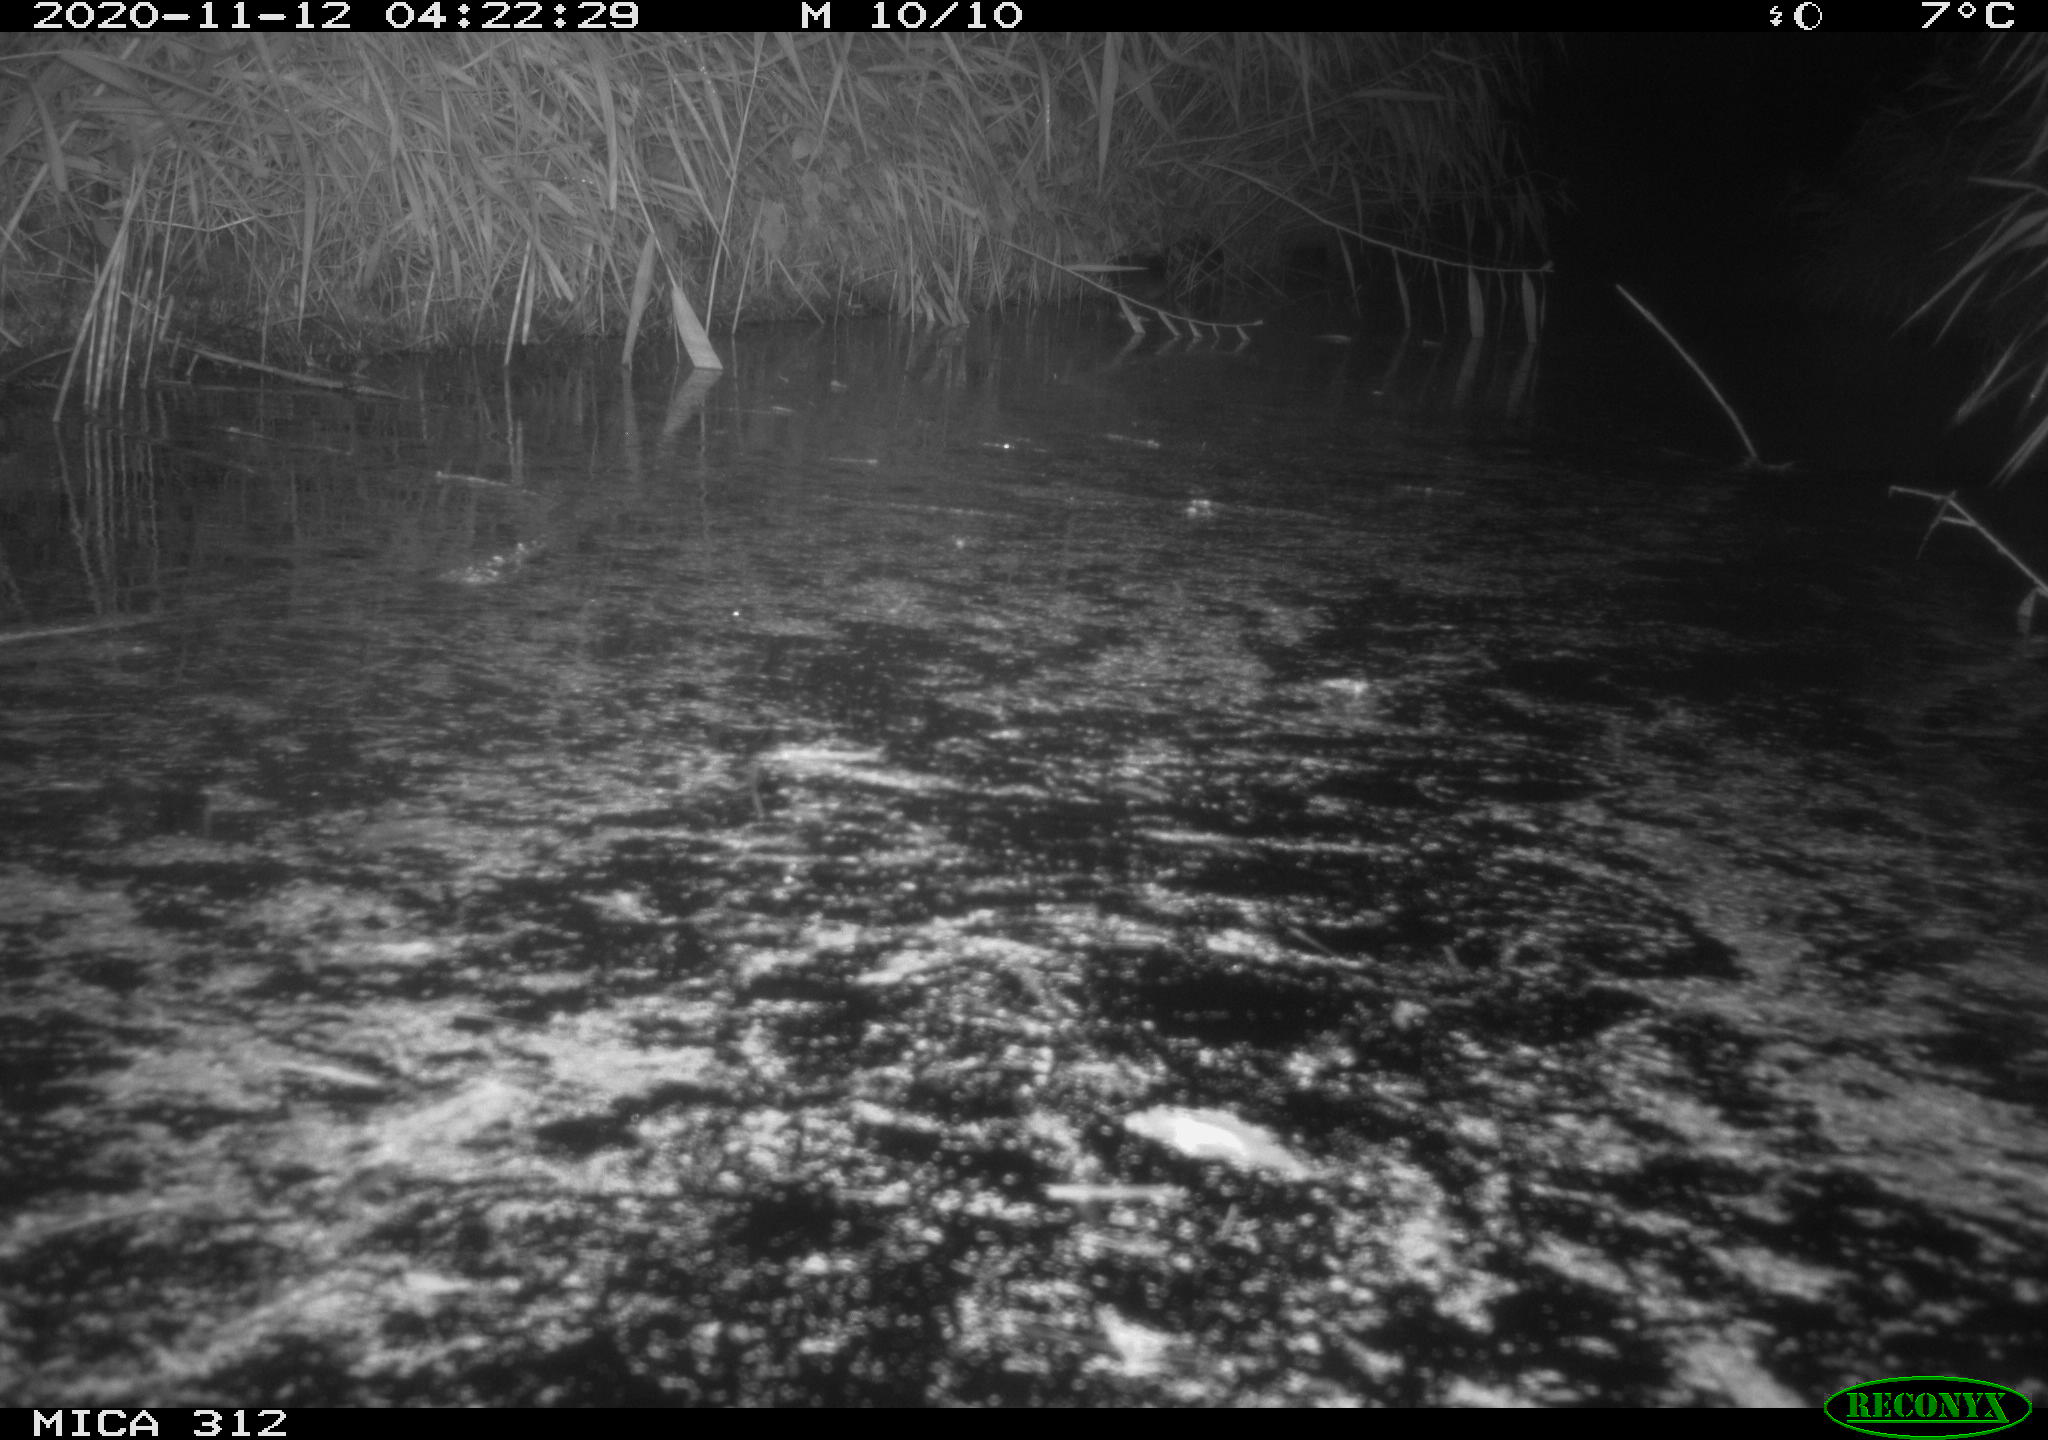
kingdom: Animalia
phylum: Chordata
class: Mammalia
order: Rodentia
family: Muridae
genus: Rattus
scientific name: Rattus norvegicus
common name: Brown rat
